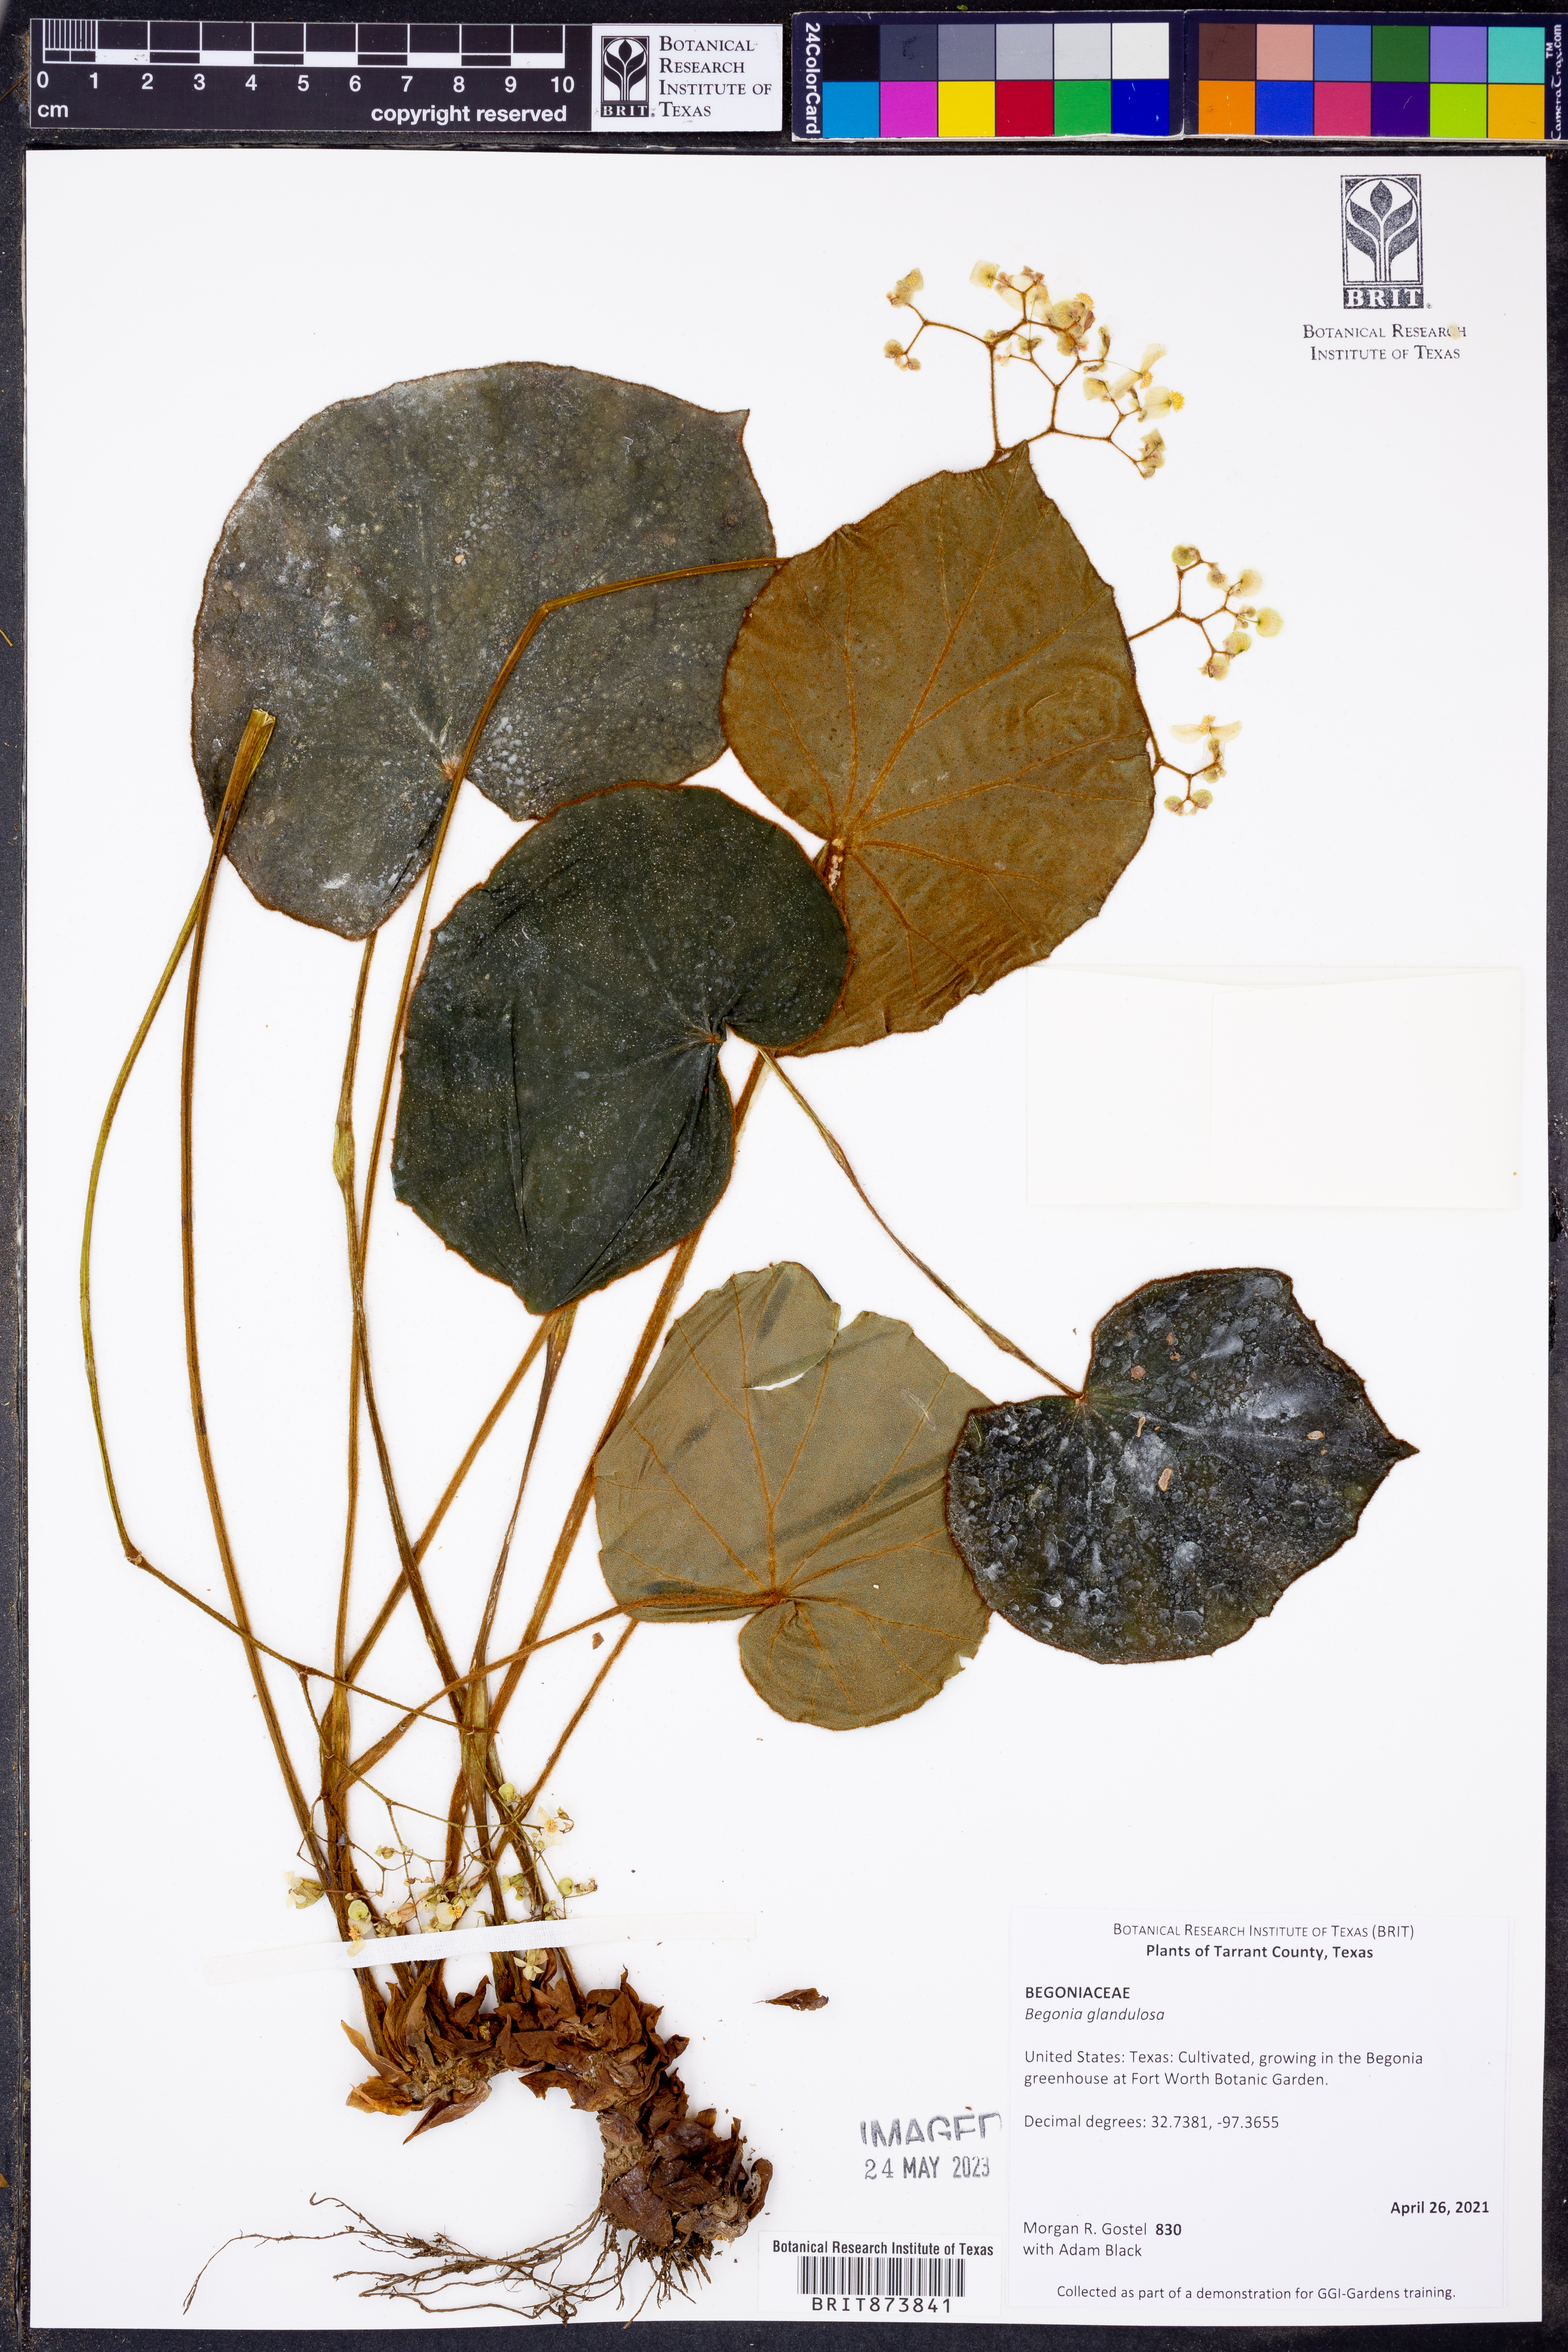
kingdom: Plantae
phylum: Tracheophyta
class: Magnoliopsida
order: Cucurbitales
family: Begoniaceae
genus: Begonia
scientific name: Begonia glandulosa
